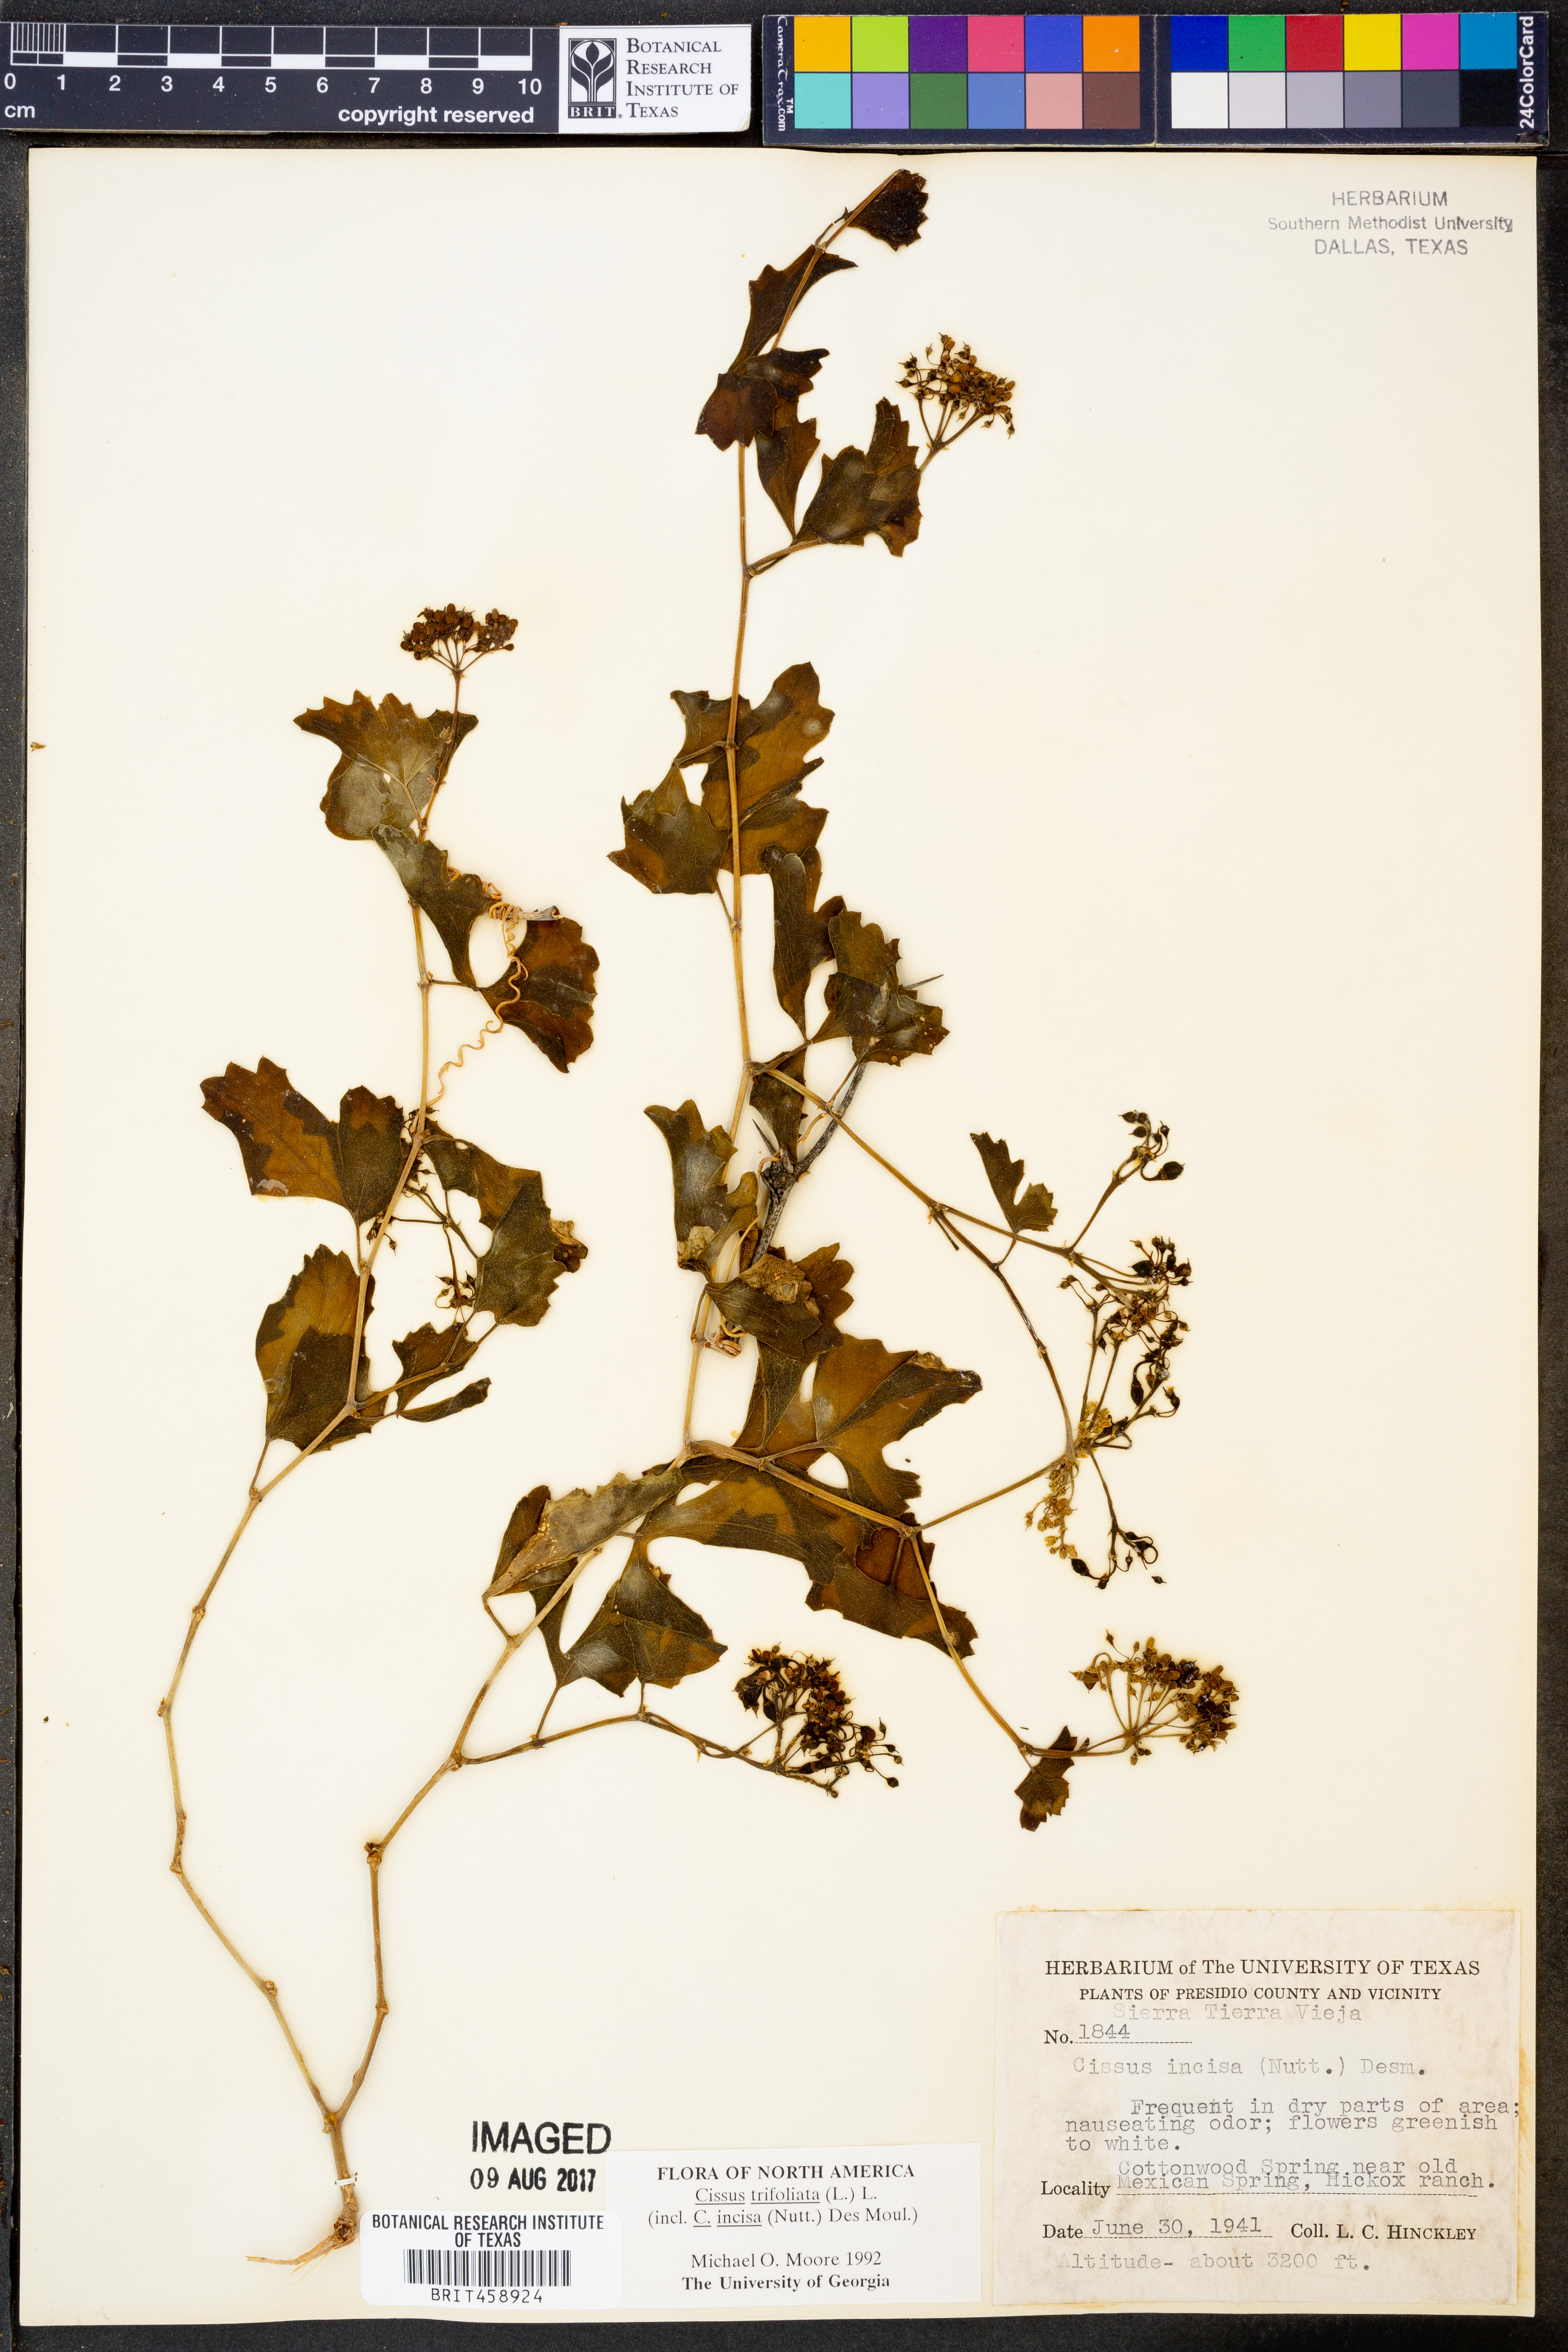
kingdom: Plantae
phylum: Tracheophyta
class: Magnoliopsida
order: Vitales
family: Vitaceae
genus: Cissus
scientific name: Cissus trifoliata
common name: Vine-sorrel
